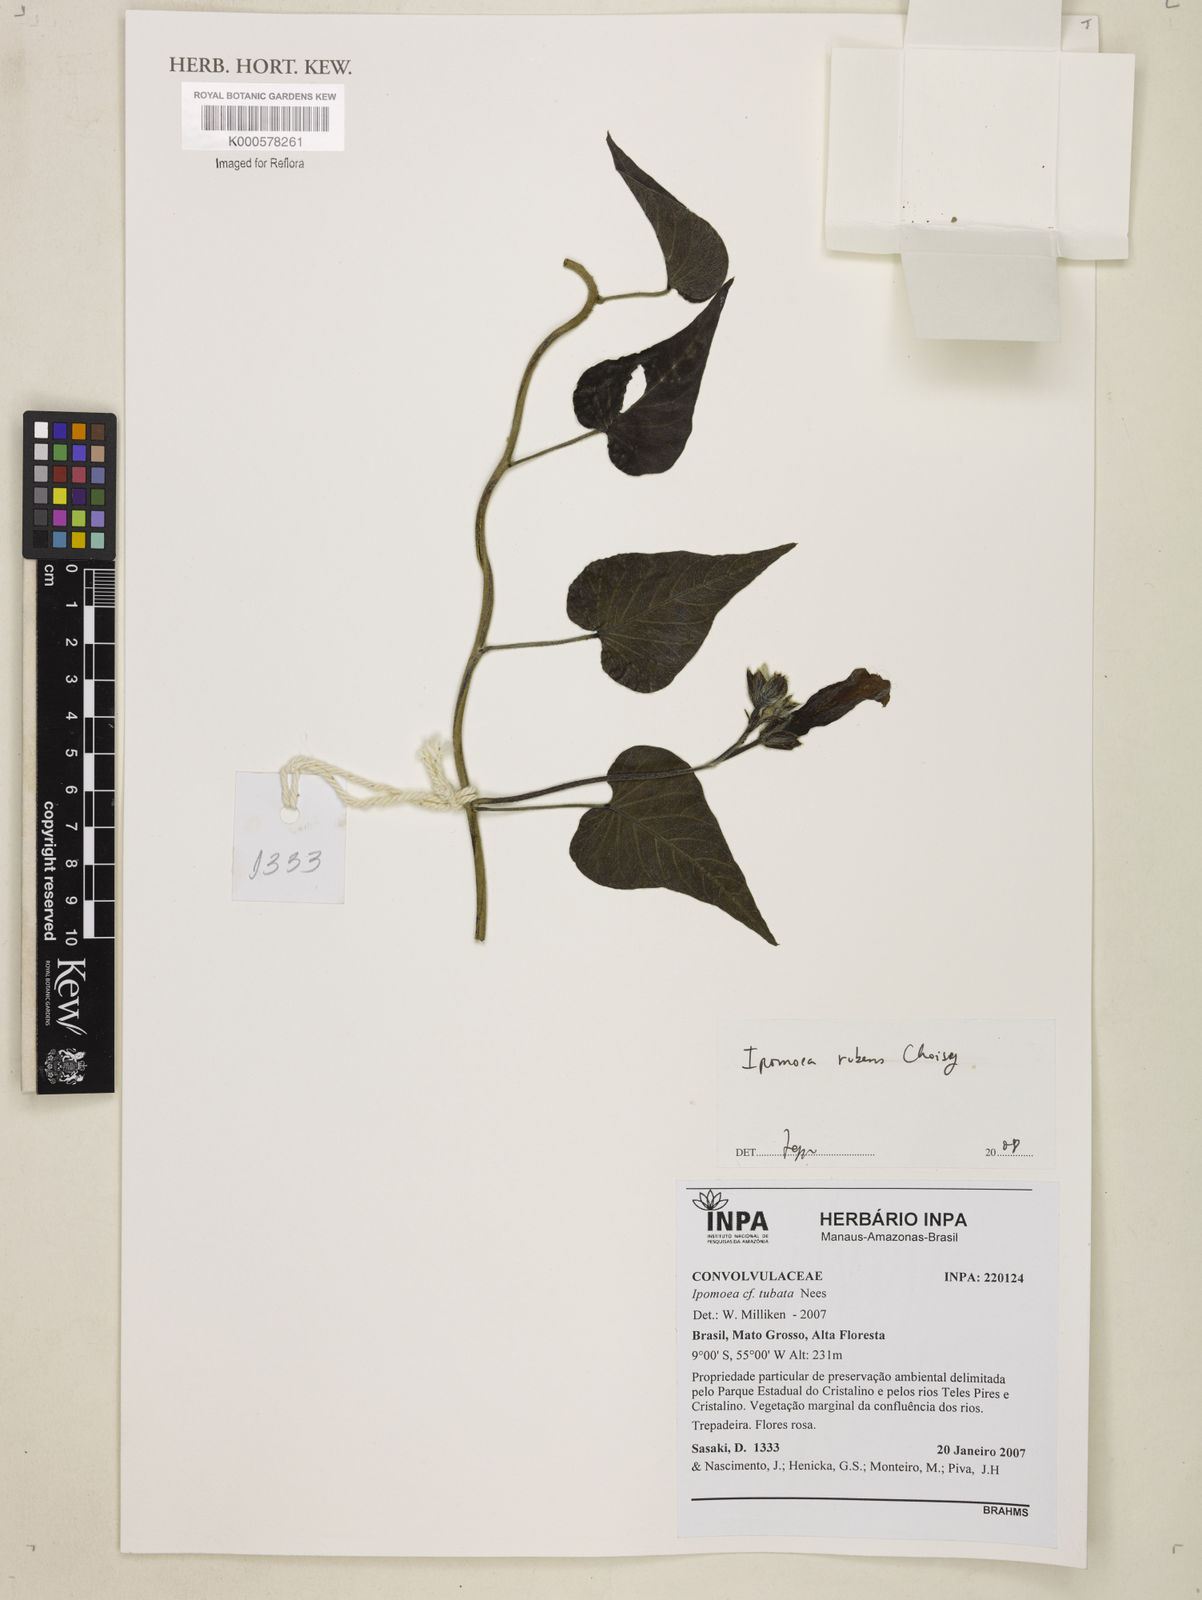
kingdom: Plantae
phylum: Tracheophyta
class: Magnoliopsida
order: Solanales
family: Convolvulaceae
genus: Ipomoea
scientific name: Ipomoea rubens
